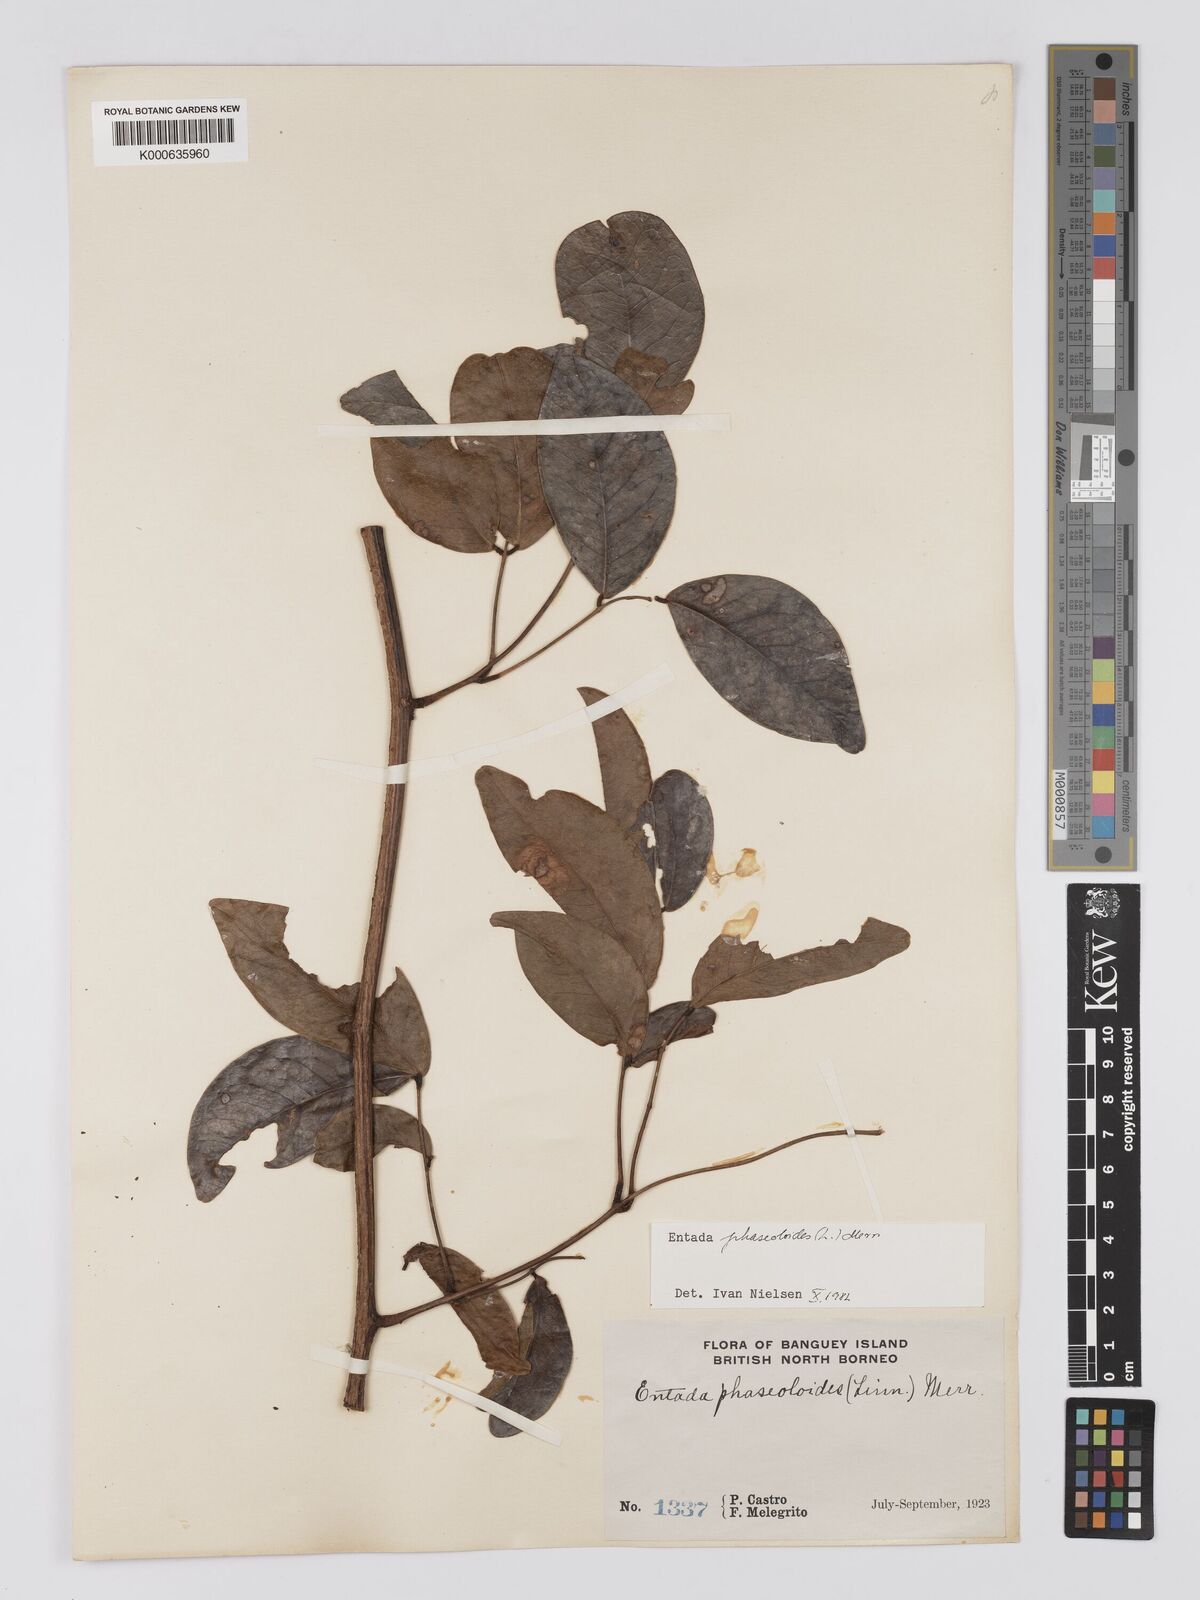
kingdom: Plantae
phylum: Tracheophyta
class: Magnoliopsida
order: Fabales
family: Fabaceae
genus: Entada
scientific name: Entada phaseoloides
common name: Matchbox-bean
